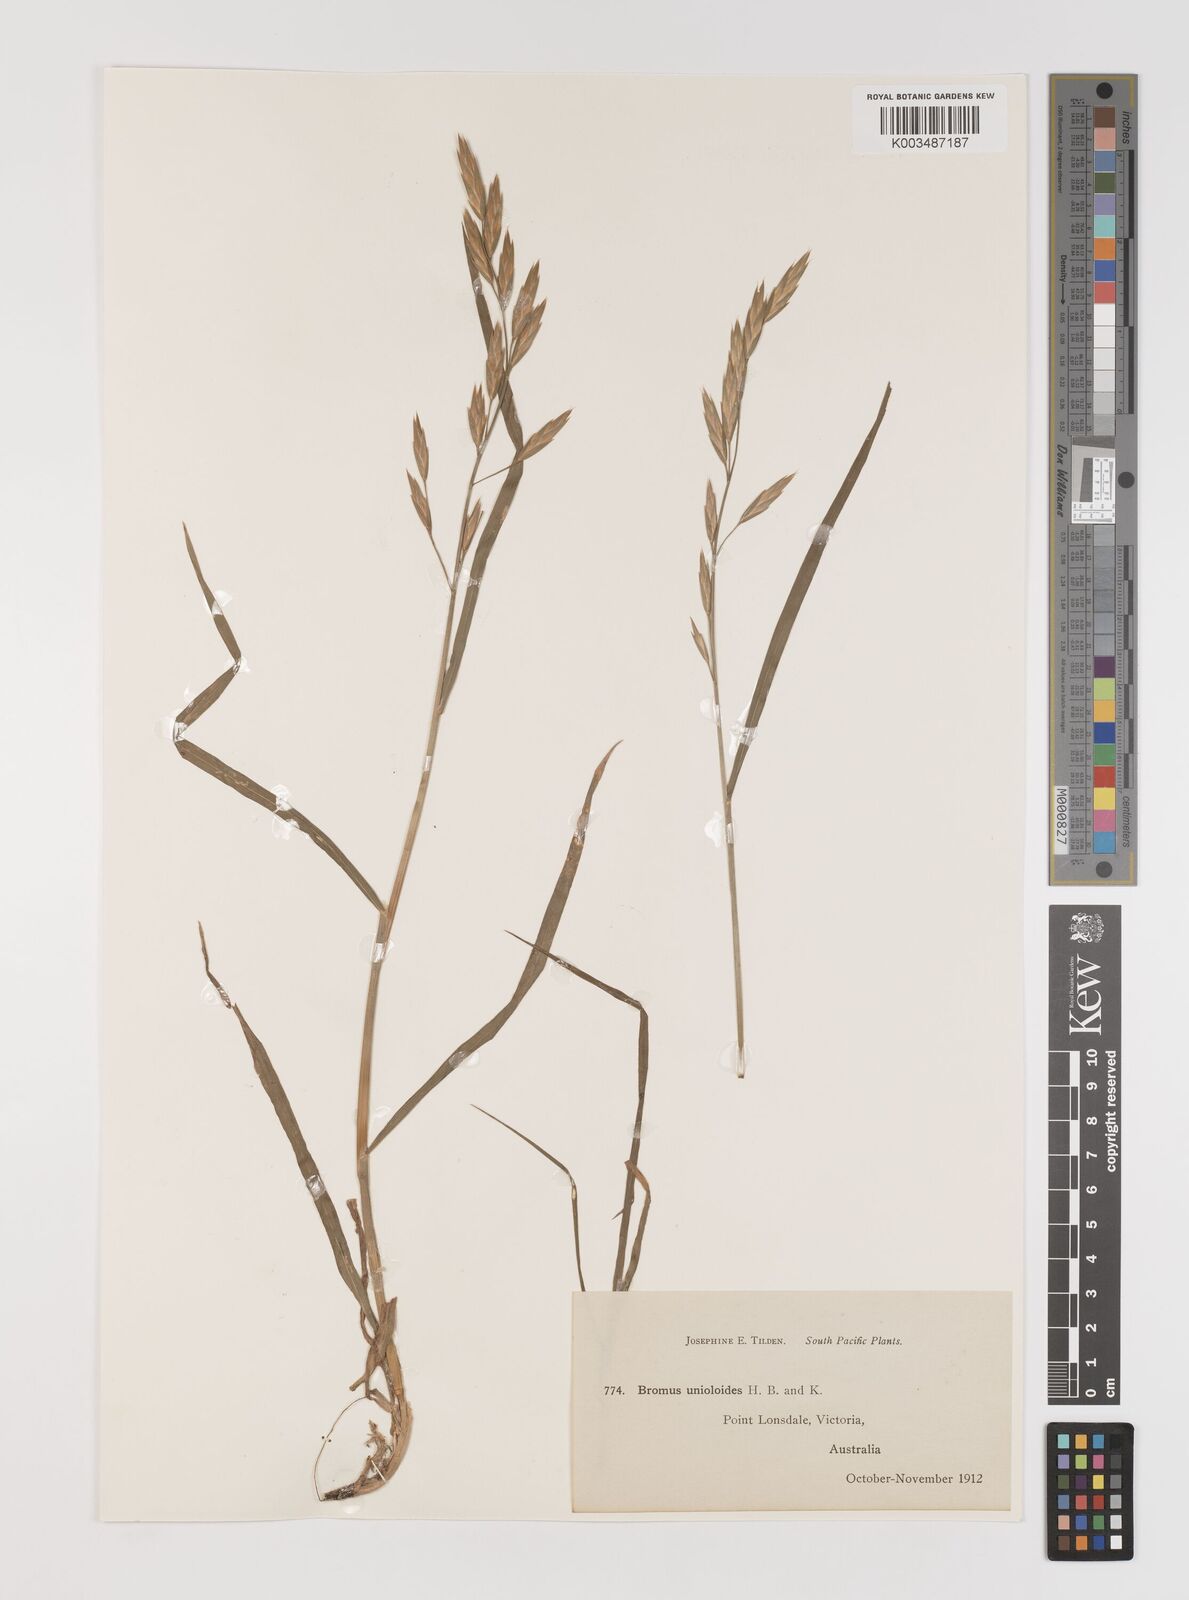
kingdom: Plantae
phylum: Tracheophyta
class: Liliopsida
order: Poales
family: Poaceae
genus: Bromus
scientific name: Bromus catharticus
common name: Rescuegrass
